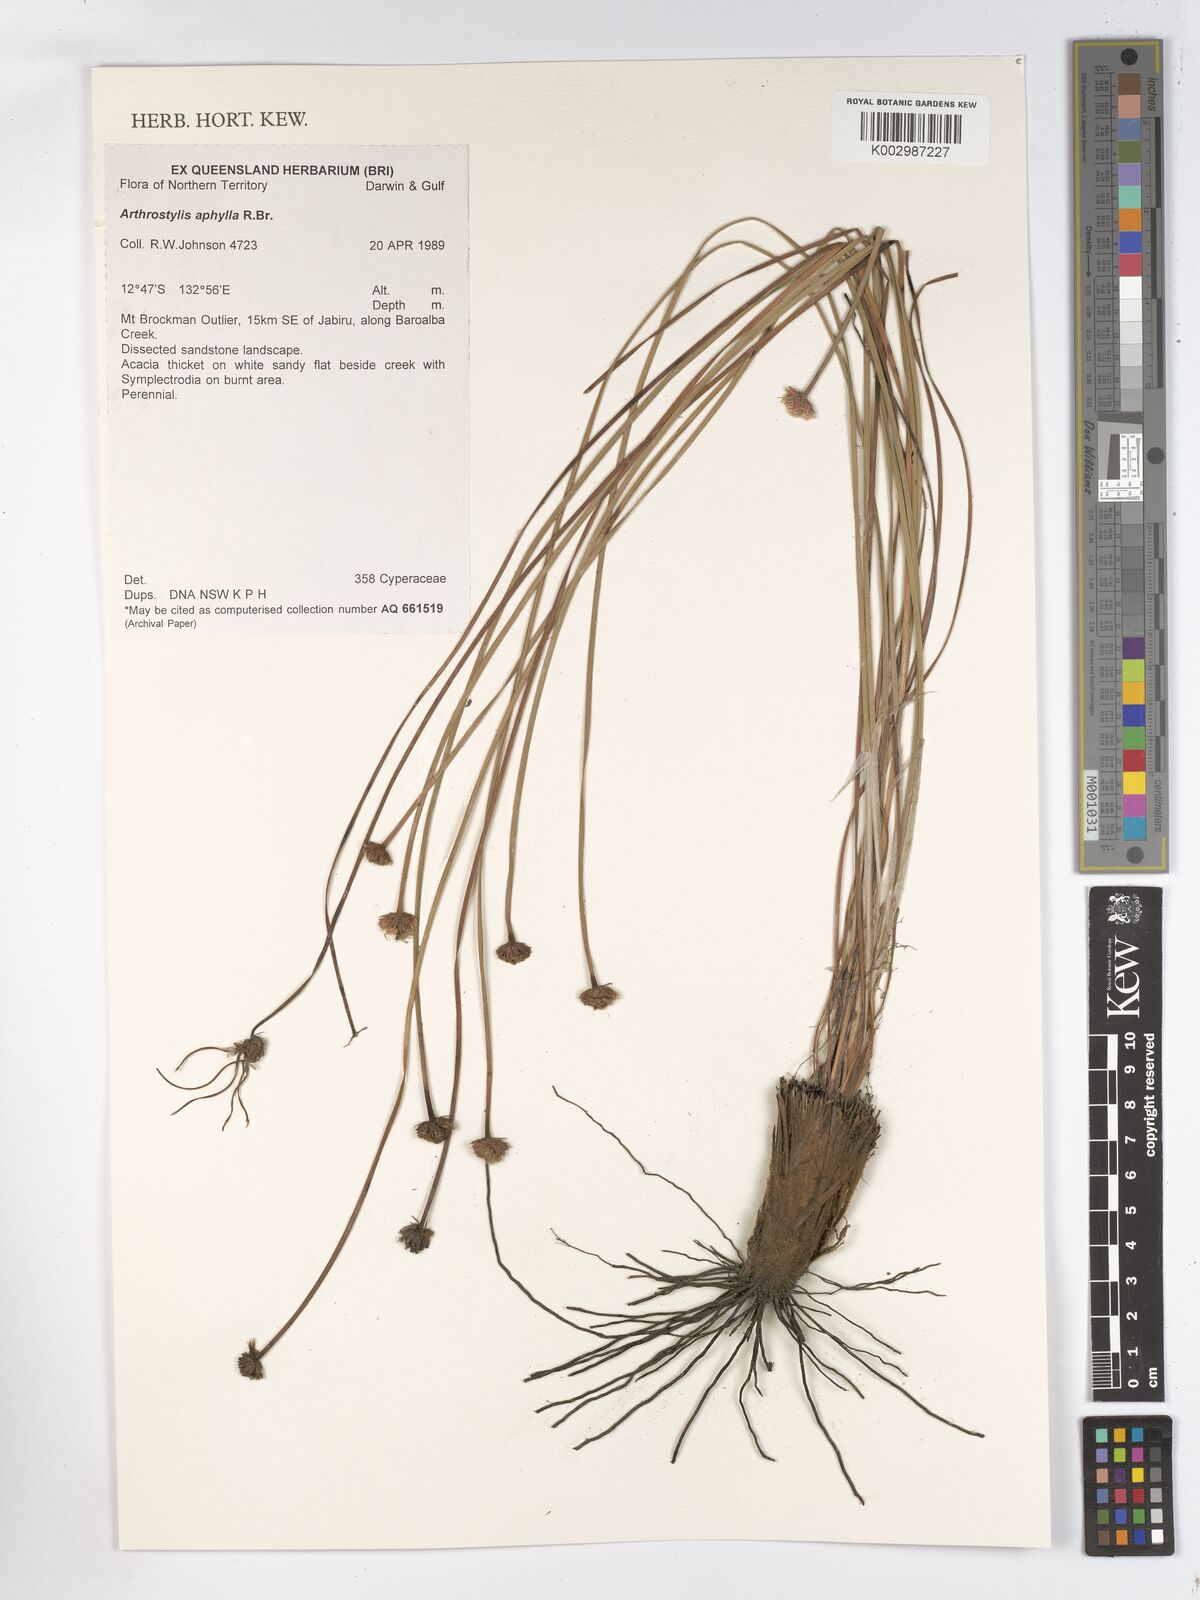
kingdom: Plantae
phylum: Tracheophyta
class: Liliopsida
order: Poales
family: Cyperaceae
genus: Arthrostylis
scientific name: Arthrostylis aphylla
